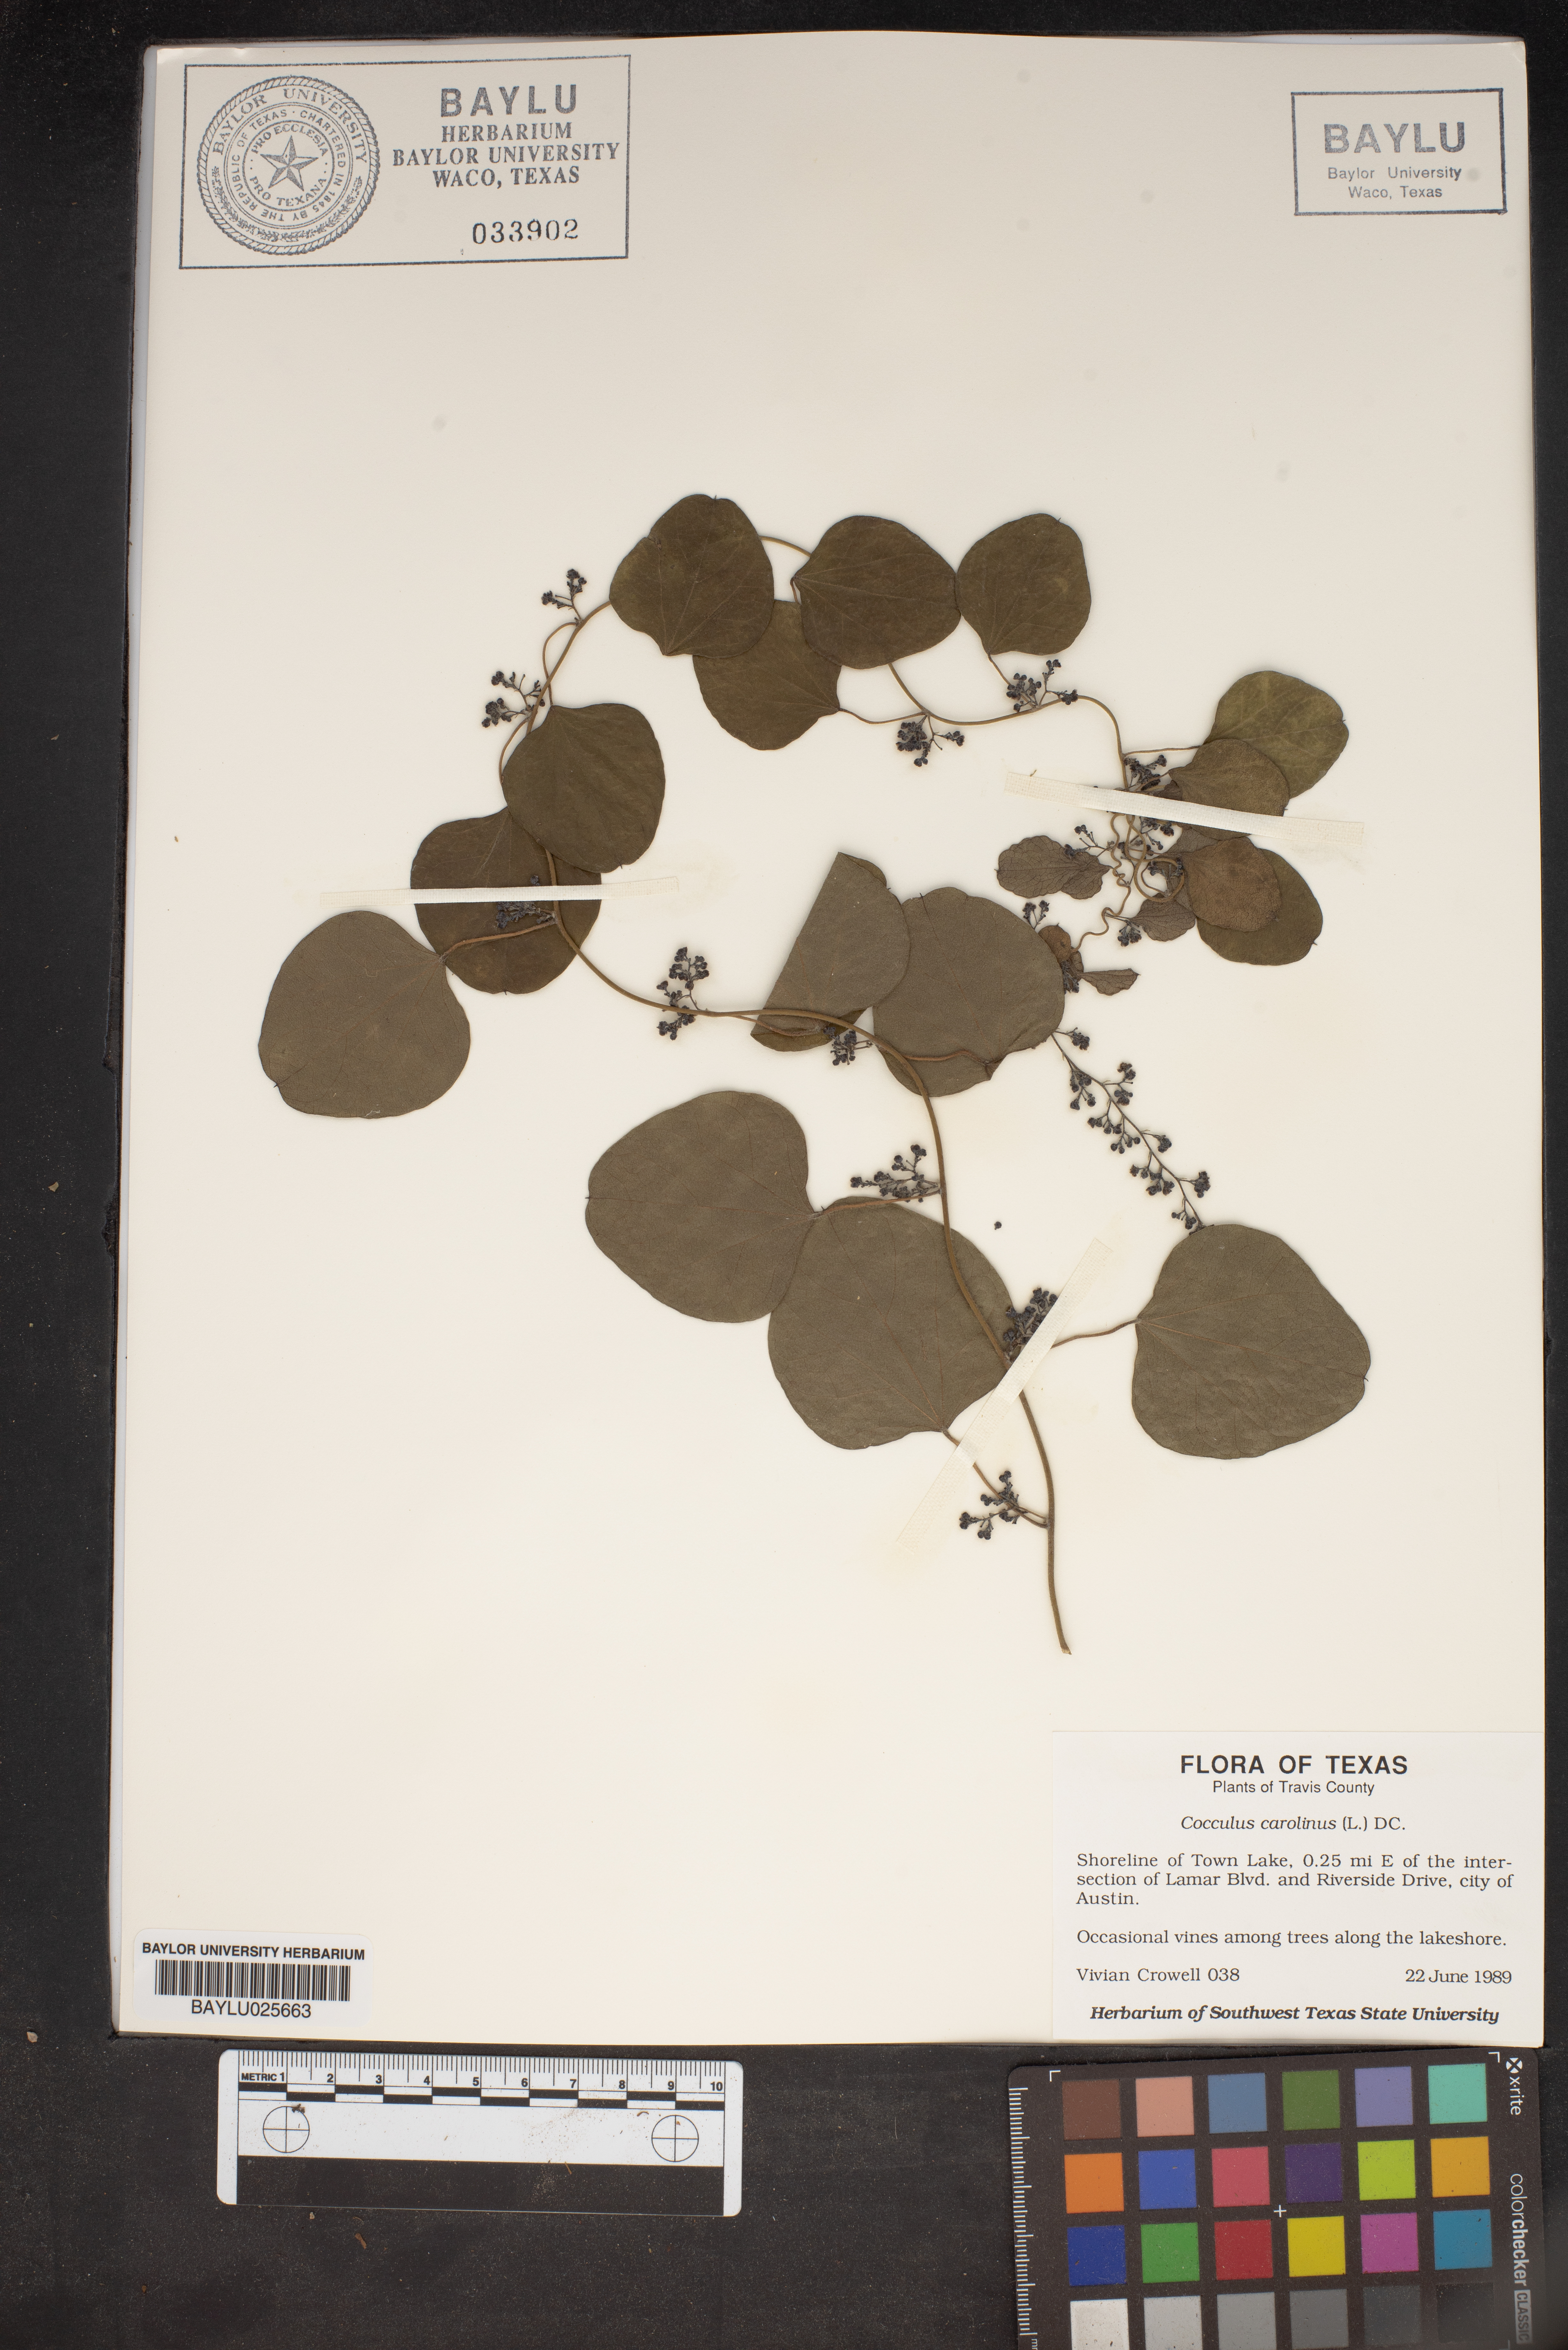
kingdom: Plantae
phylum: Tracheophyta
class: Magnoliopsida
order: Ranunculales
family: Menispermaceae
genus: Cocculus
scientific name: Cocculus carolinus
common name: Carolina moonseed
